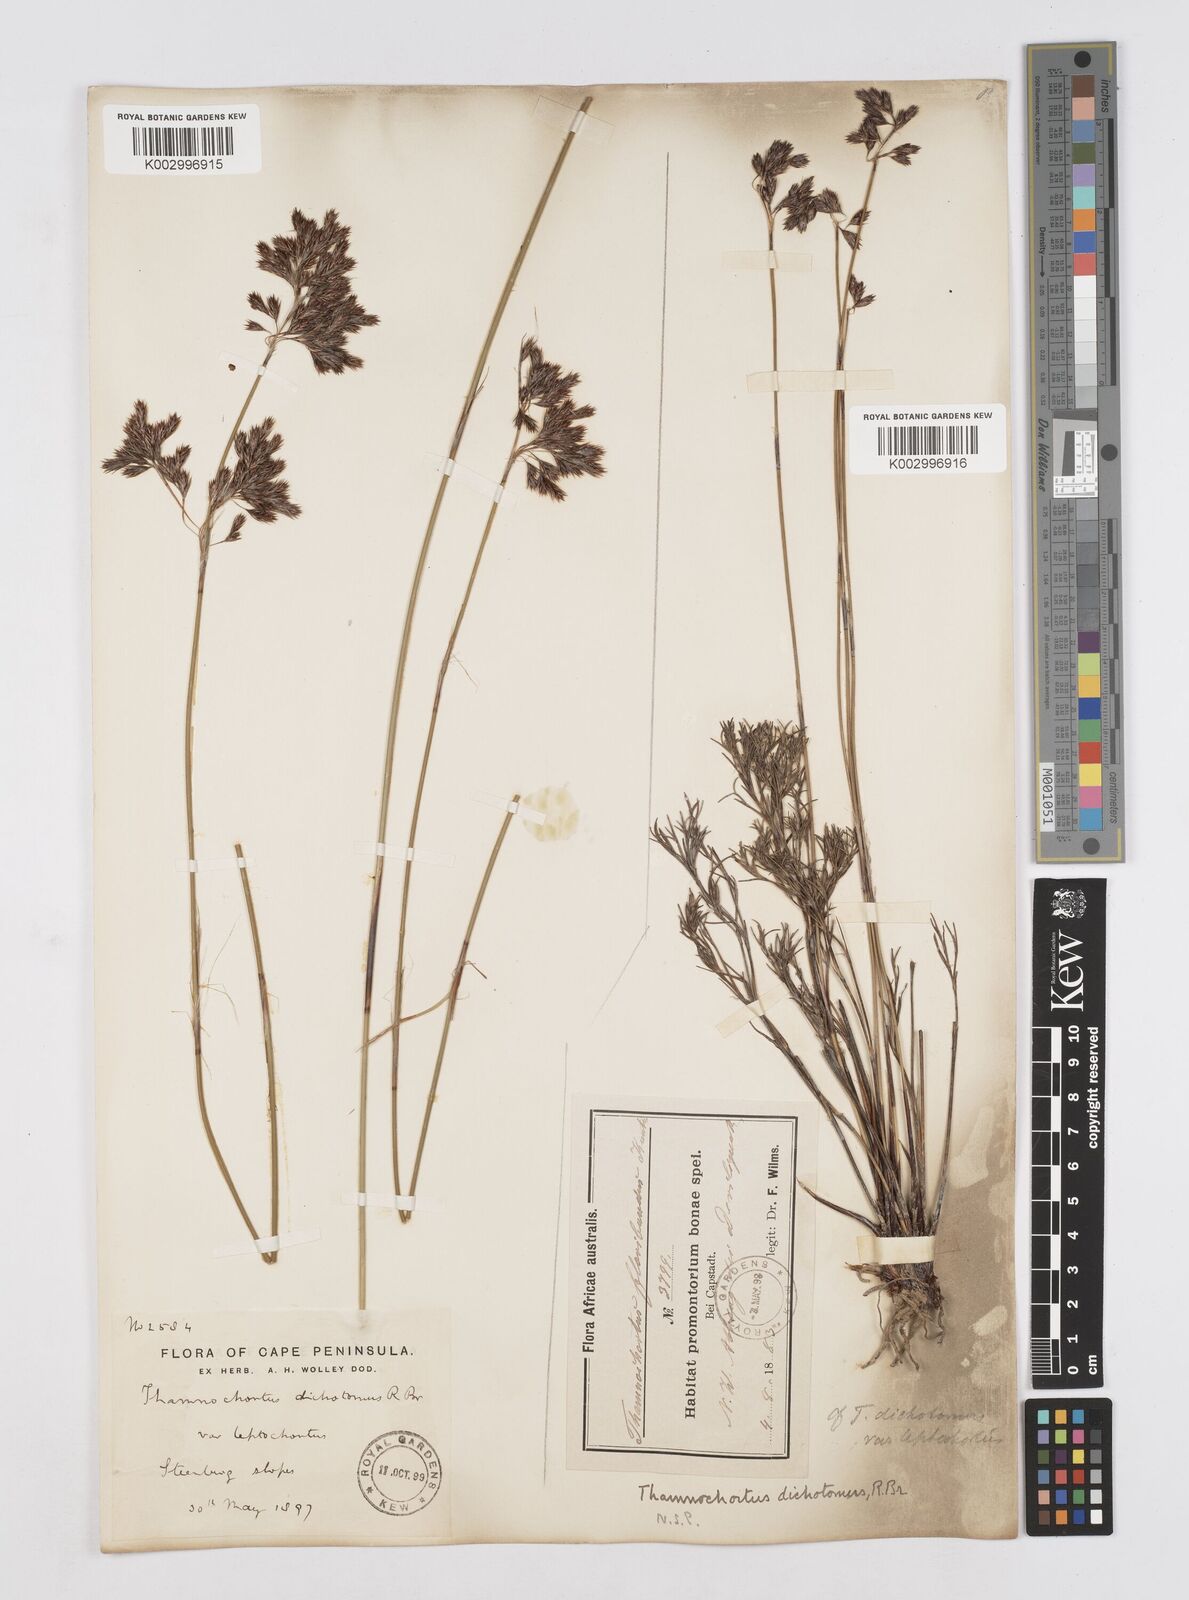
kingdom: Plantae
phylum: Tracheophyta
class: Liliopsida
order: Poales
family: Restionaceae
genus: Thamnochortus
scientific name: Thamnochortus lucens
